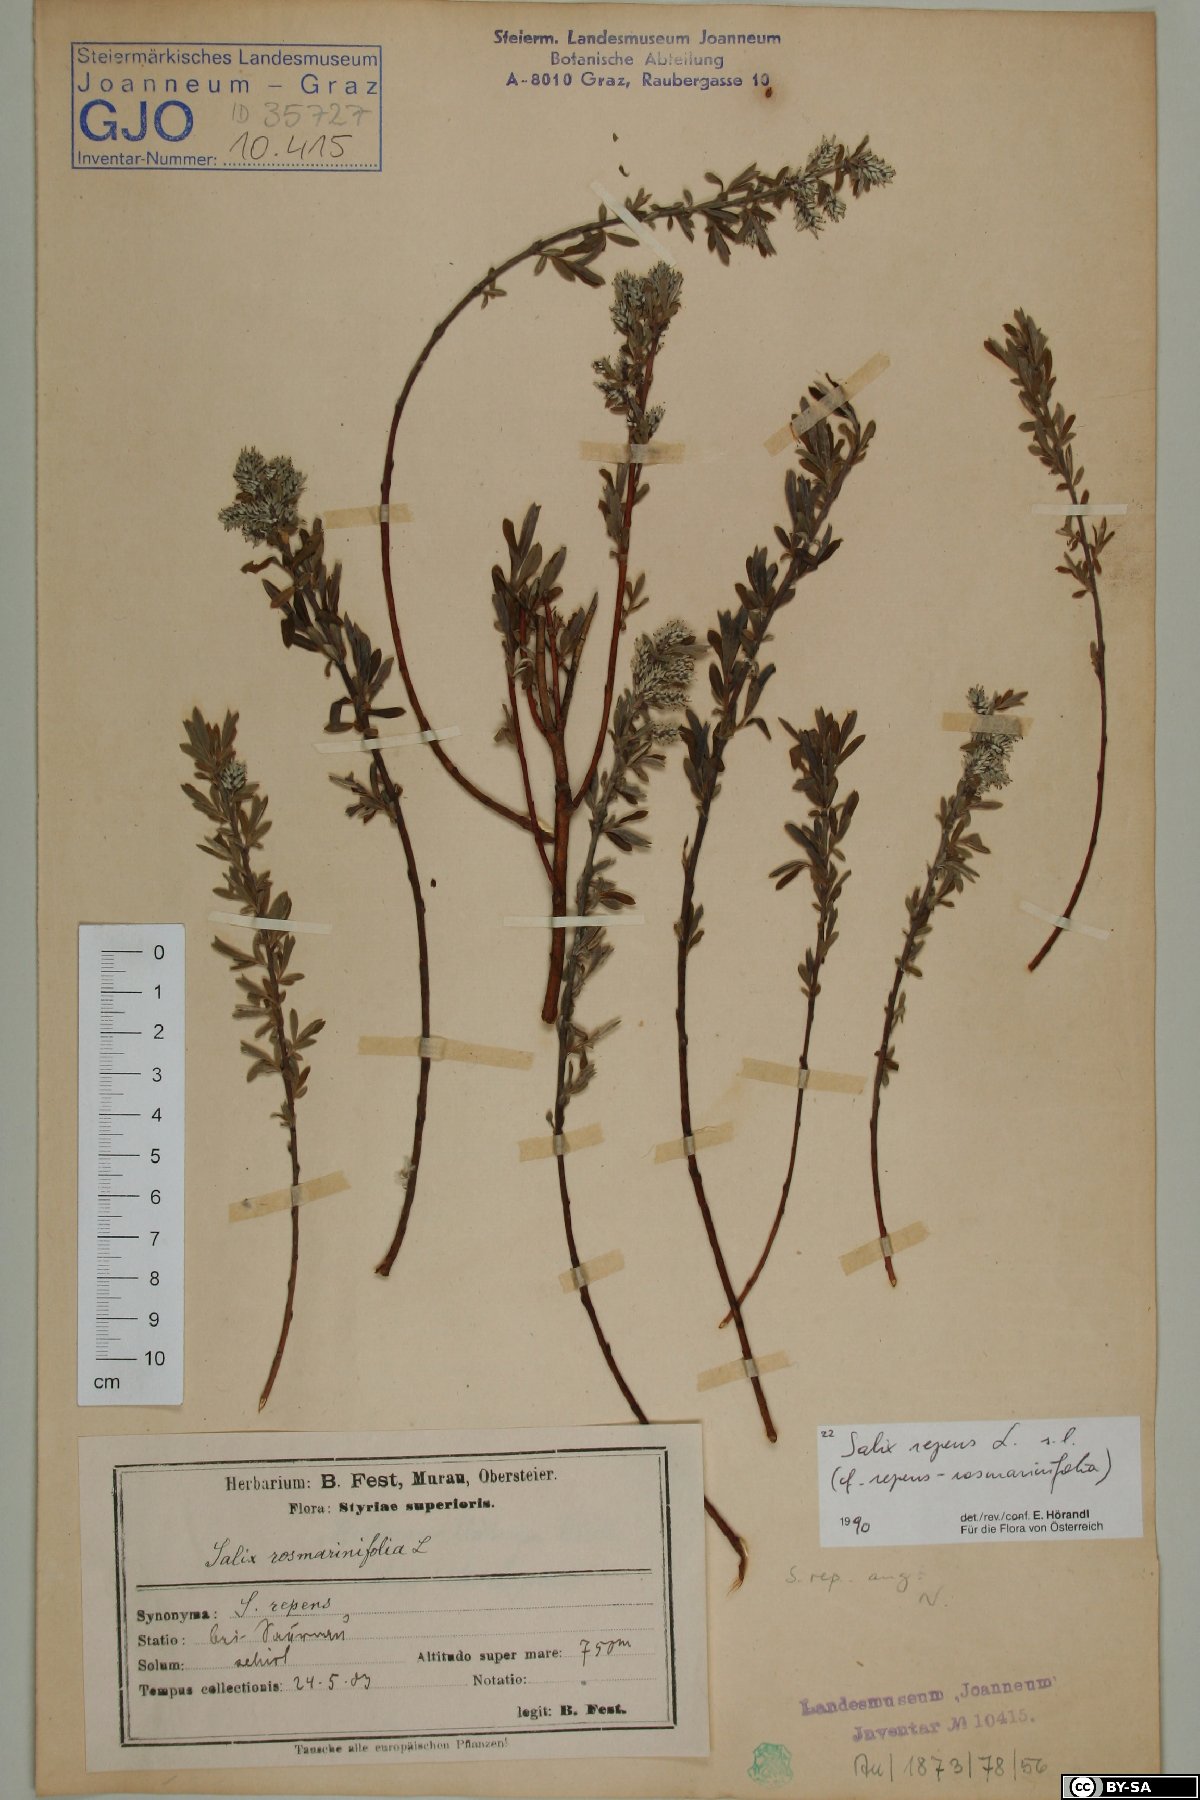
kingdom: Fungi
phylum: Basidiomycota
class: Agaricomycetes
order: Polyporales
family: Polyporaceae
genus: Ganoderma
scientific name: Ganoderma carnosum
